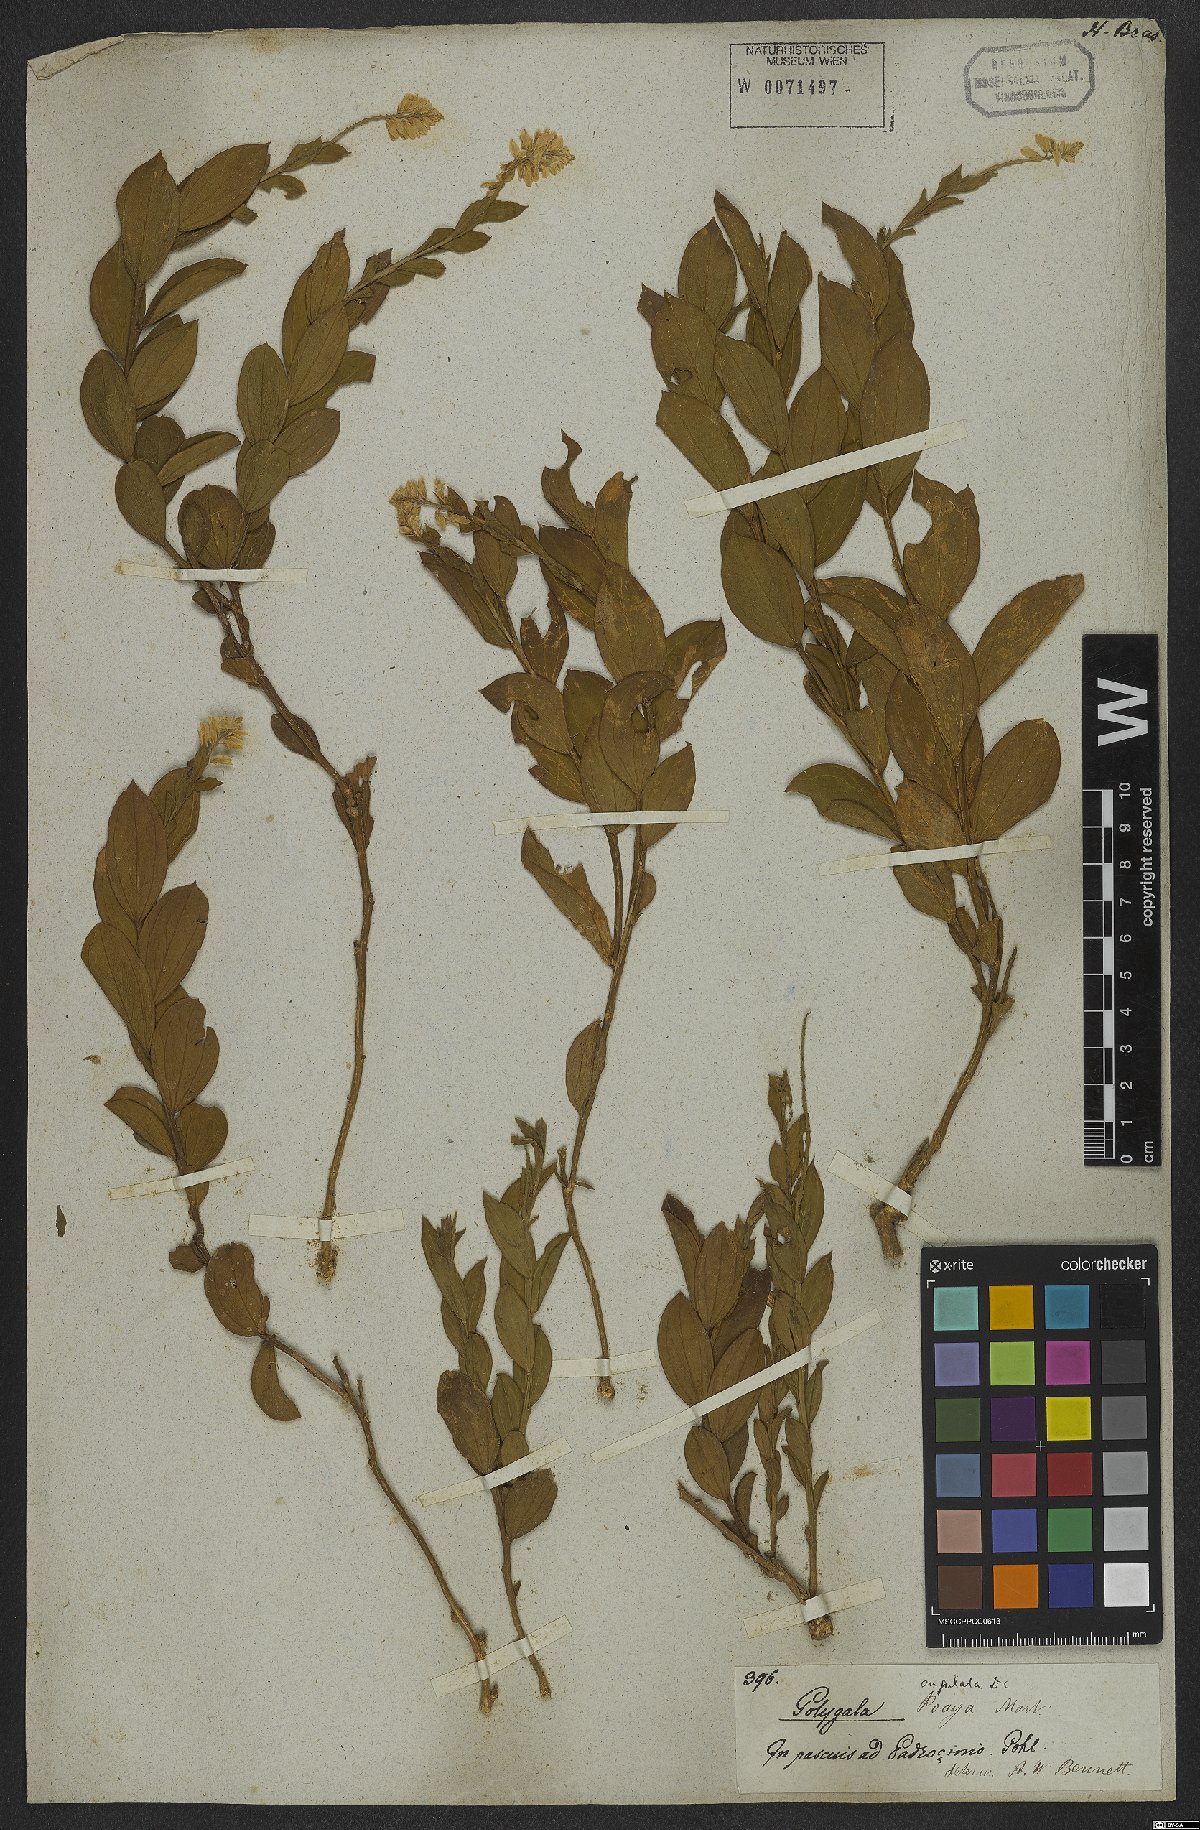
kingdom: Plantae
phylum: Tracheophyta
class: Magnoliopsida
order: Fabales
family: Polygalaceae
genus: Polygala
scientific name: Polygala poaya
